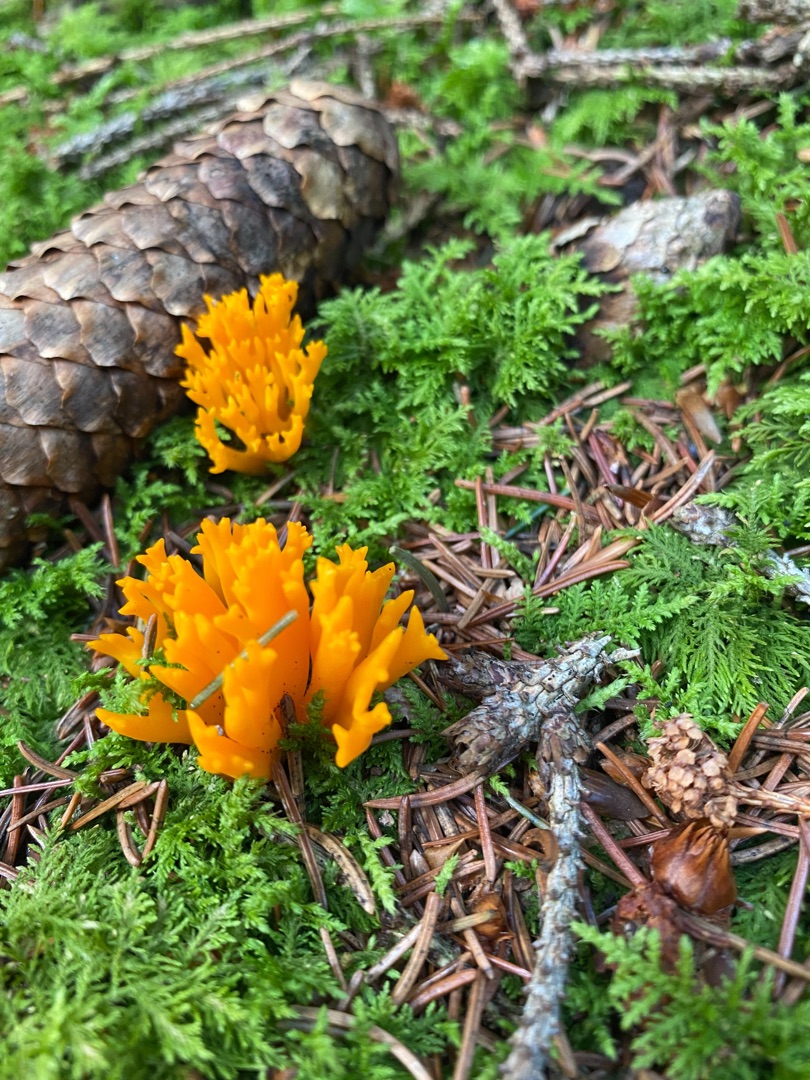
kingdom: Fungi
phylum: Basidiomycota
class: Dacrymycetes
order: Dacrymycetales
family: Dacrymycetaceae
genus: Calocera
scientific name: Calocera viscosa
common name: Almindelig guldgaffel
